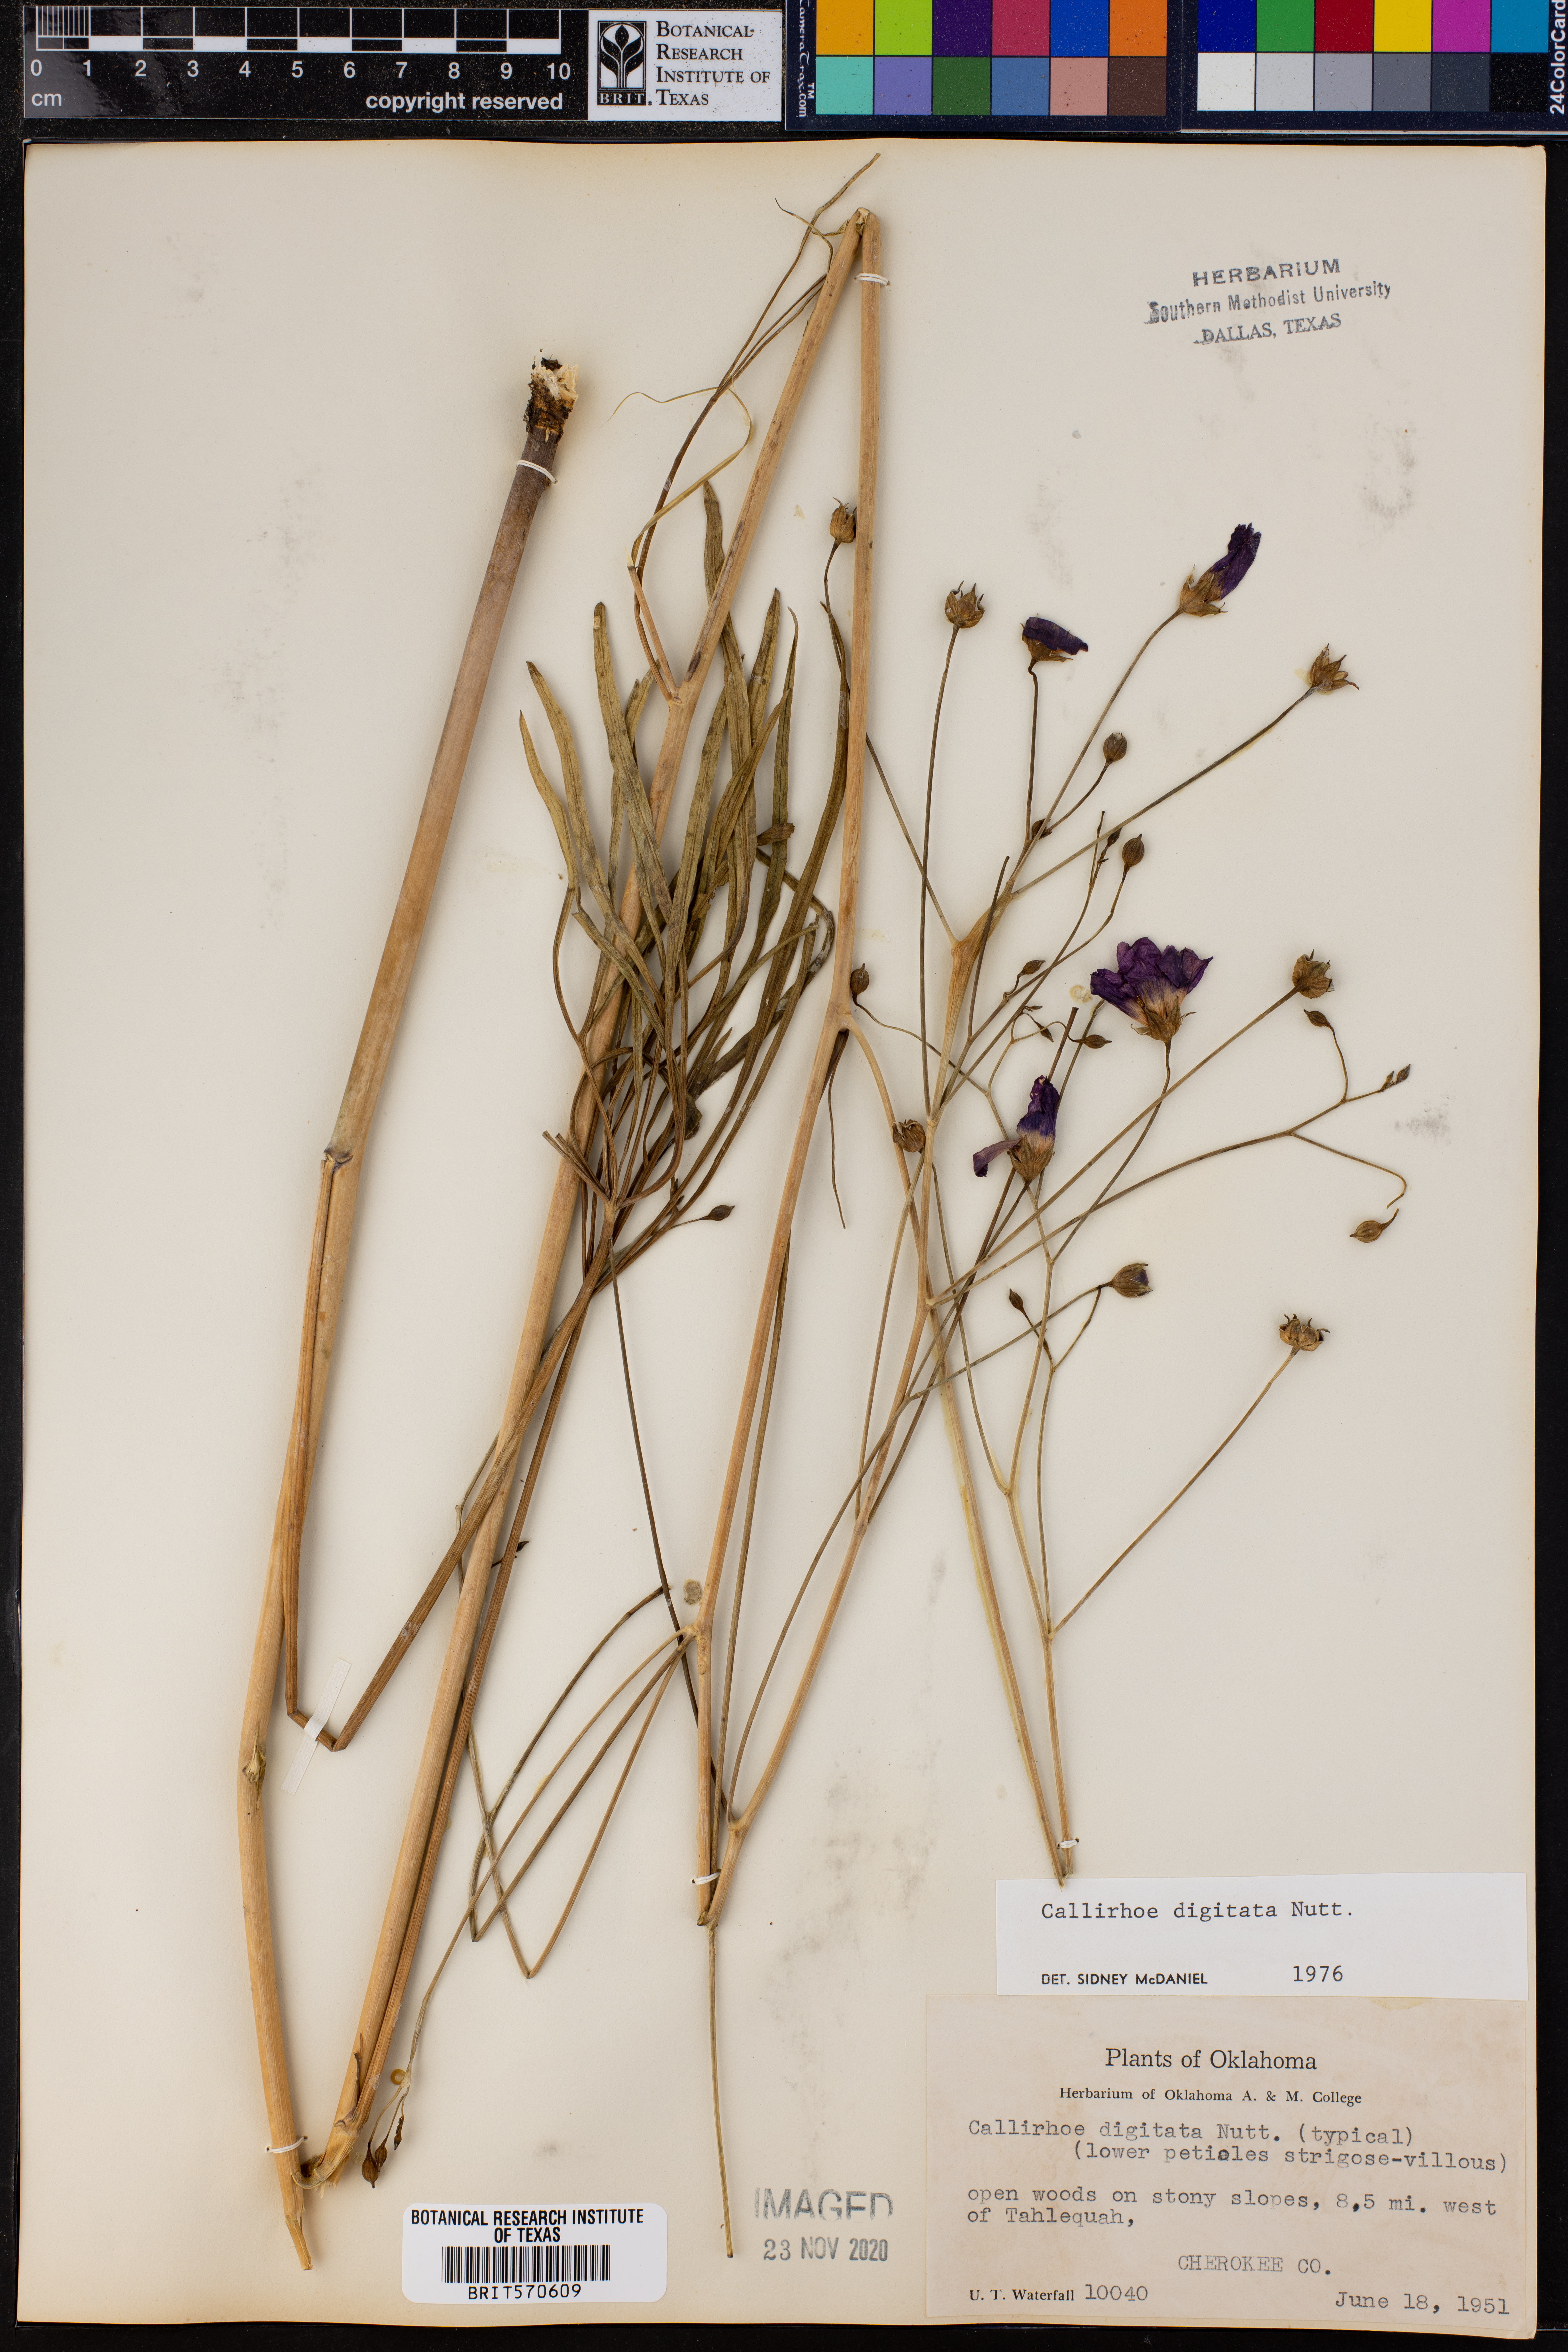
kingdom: Plantae
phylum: Tracheophyta
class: Magnoliopsida
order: Malvales
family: Malvaceae
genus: Callirhoe
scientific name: Callirhoe digitata
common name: Finger poppy-mallow
